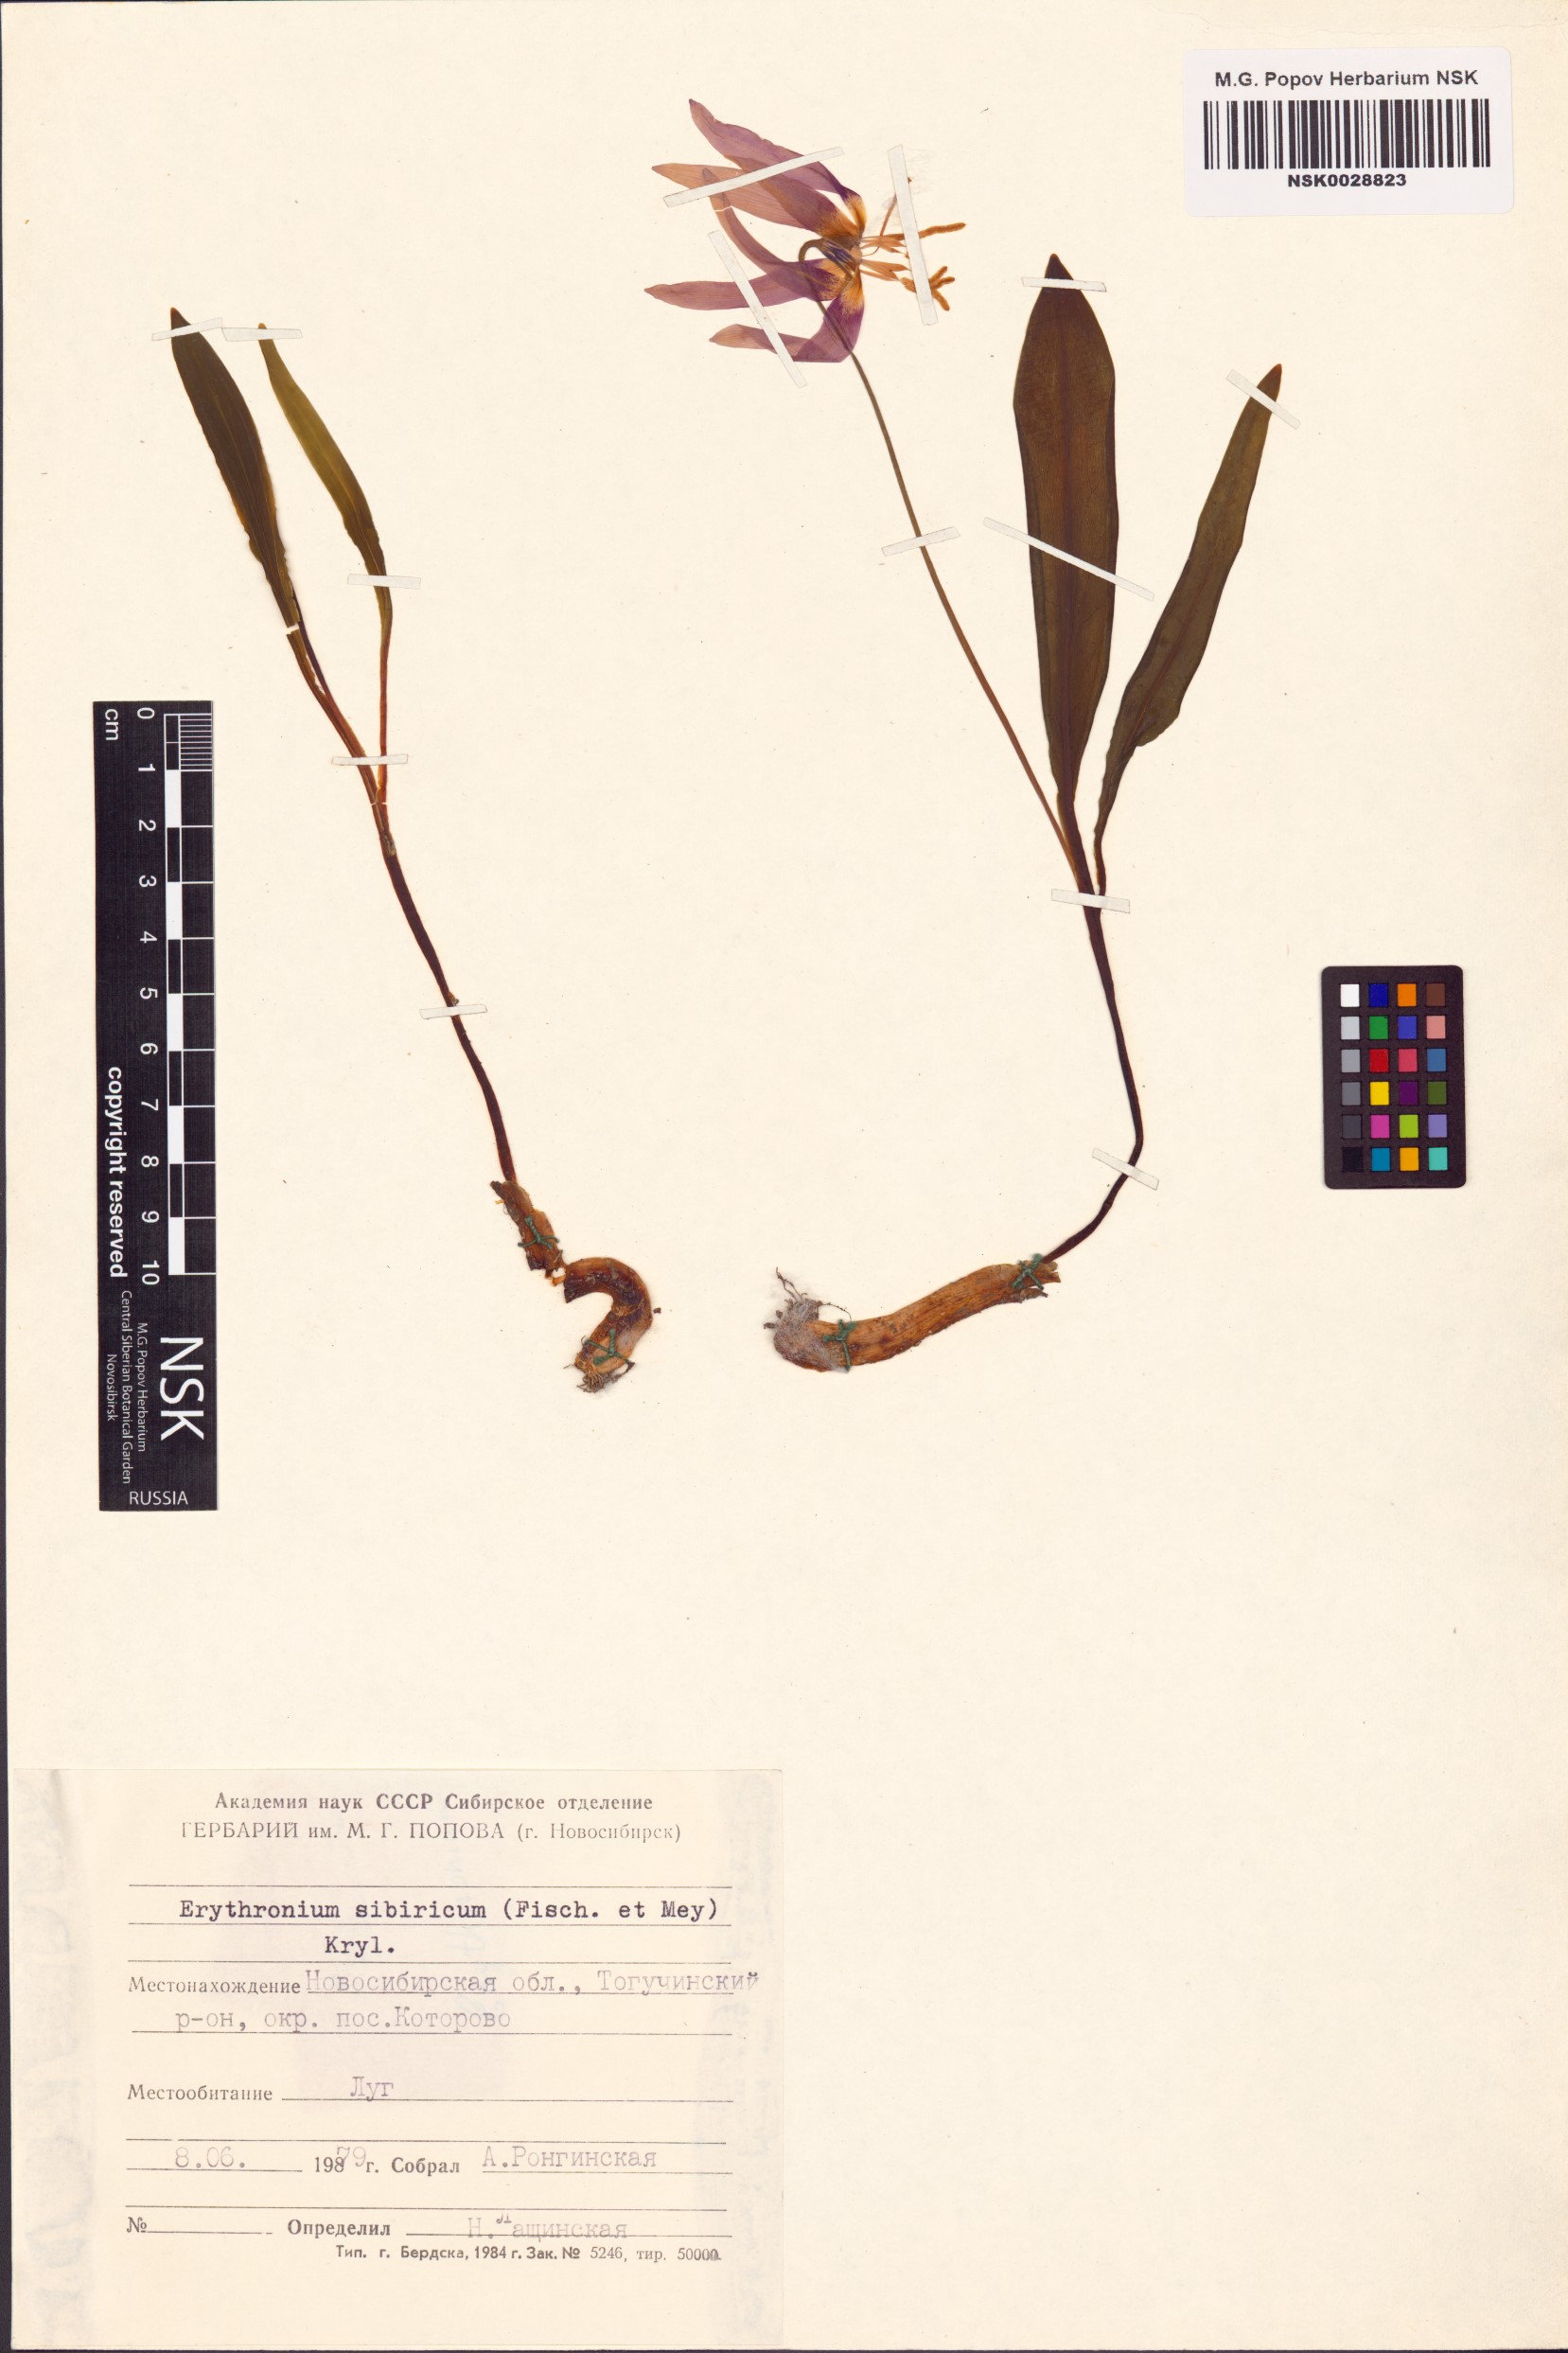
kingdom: Plantae
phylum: Tracheophyta
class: Liliopsida
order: Liliales
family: Liliaceae
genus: Erythronium
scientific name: Erythronium sibiricum
